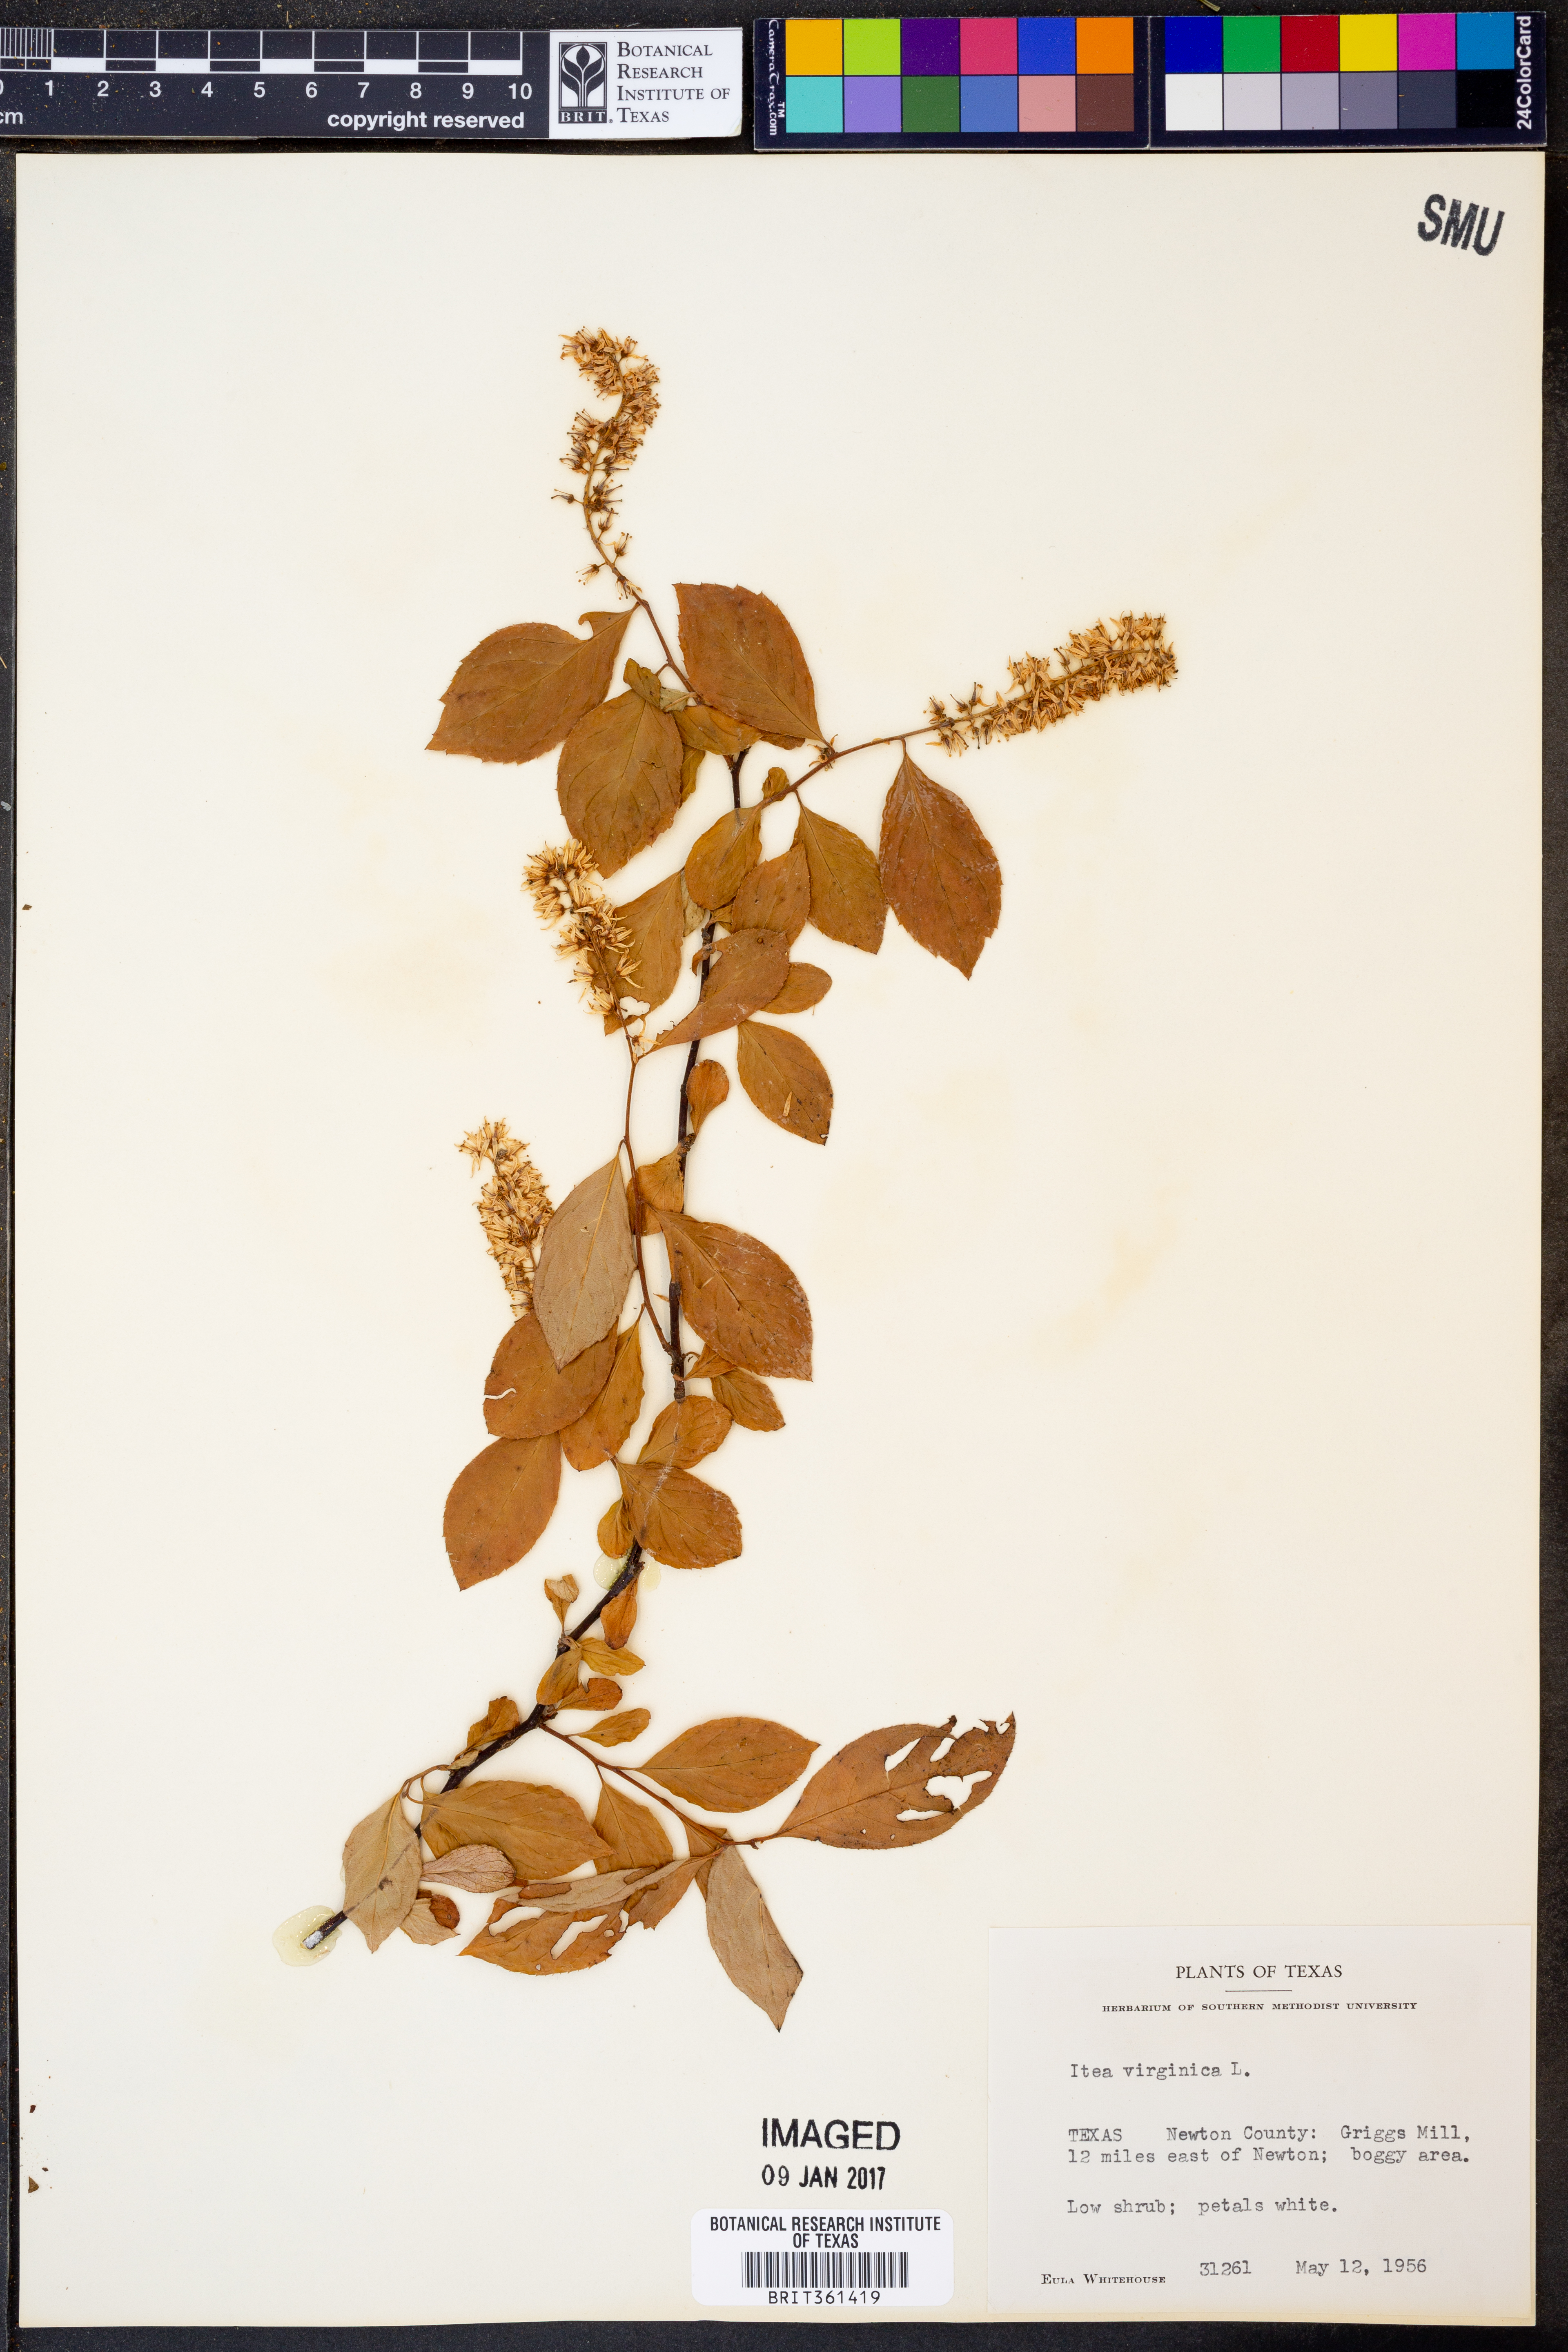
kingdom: Plantae
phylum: Tracheophyta
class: Magnoliopsida
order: Saxifragales
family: Iteaceae
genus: Itea
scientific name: Itea virginica
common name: Sweetspire
